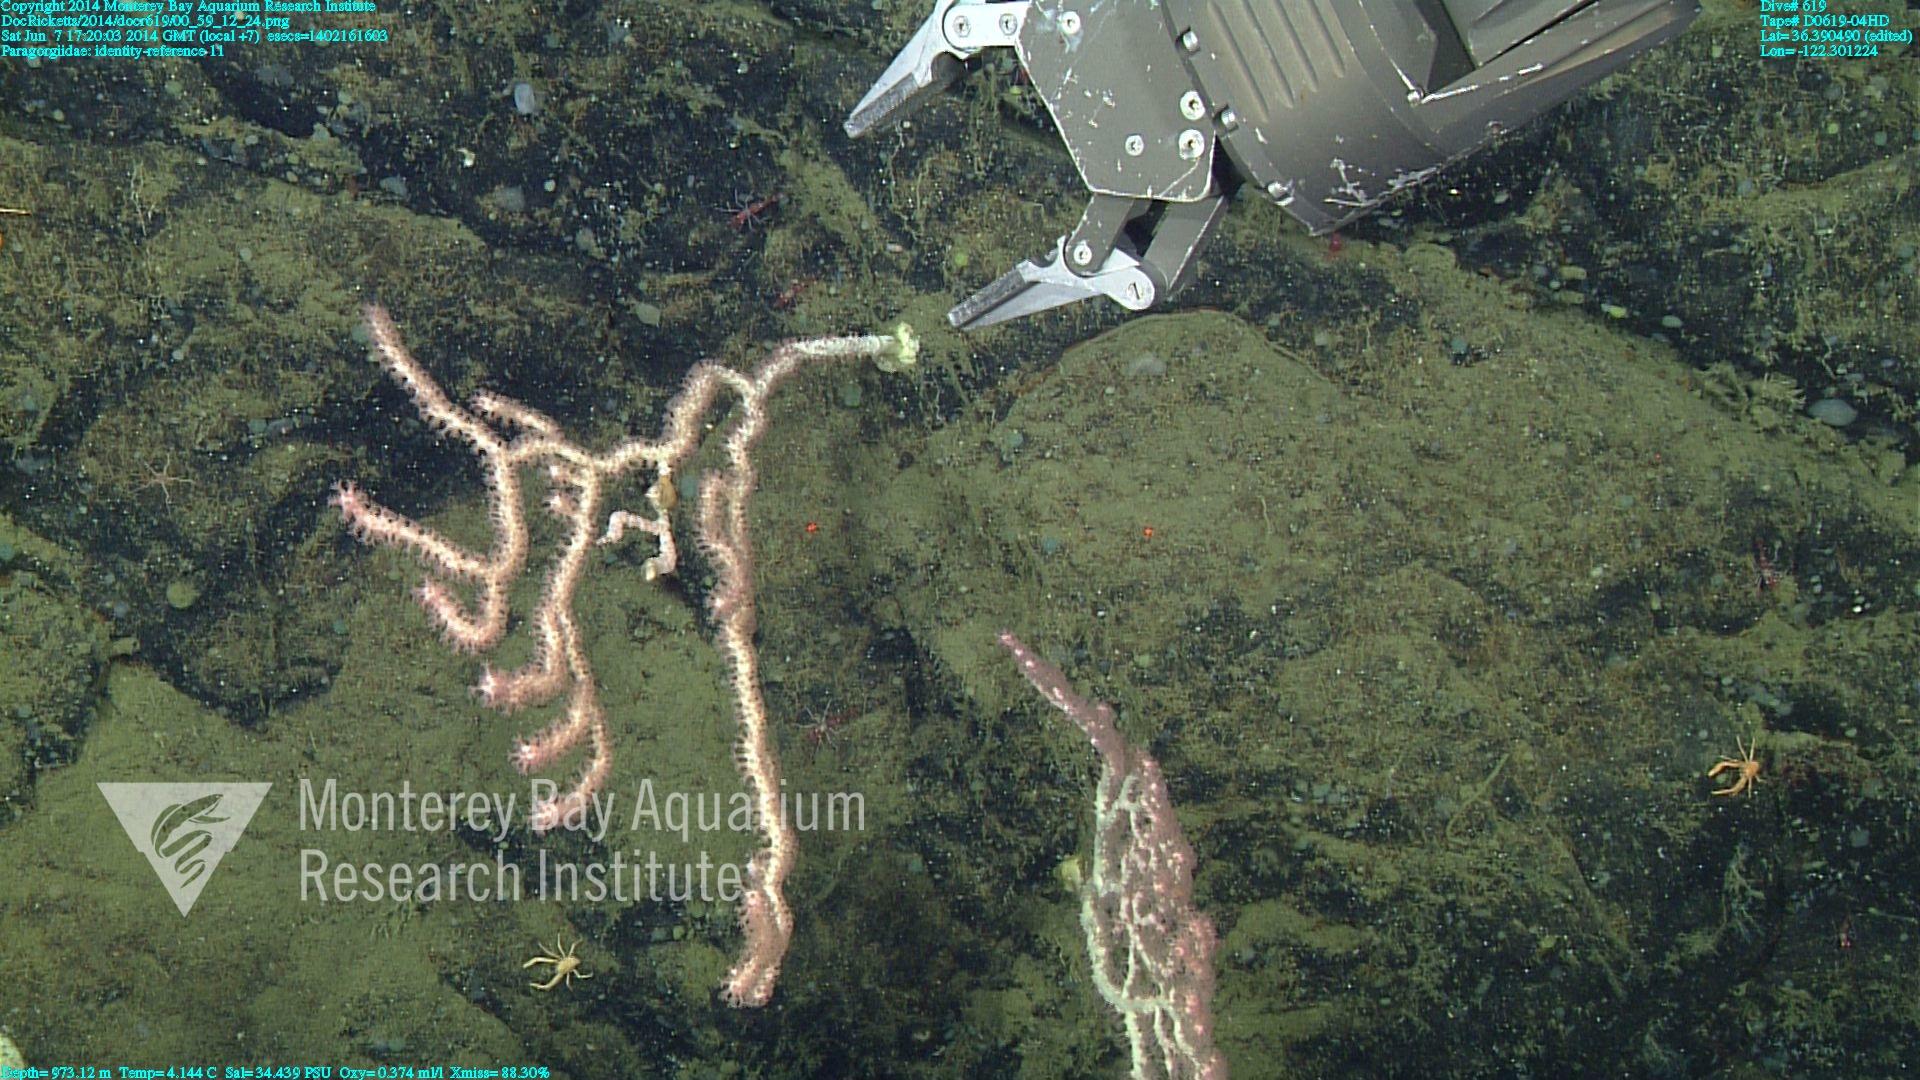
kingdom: Animalia
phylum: Cnidaria
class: Anthozoa
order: Scleralcyonacea
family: Coralliidae
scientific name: Coralliidae
